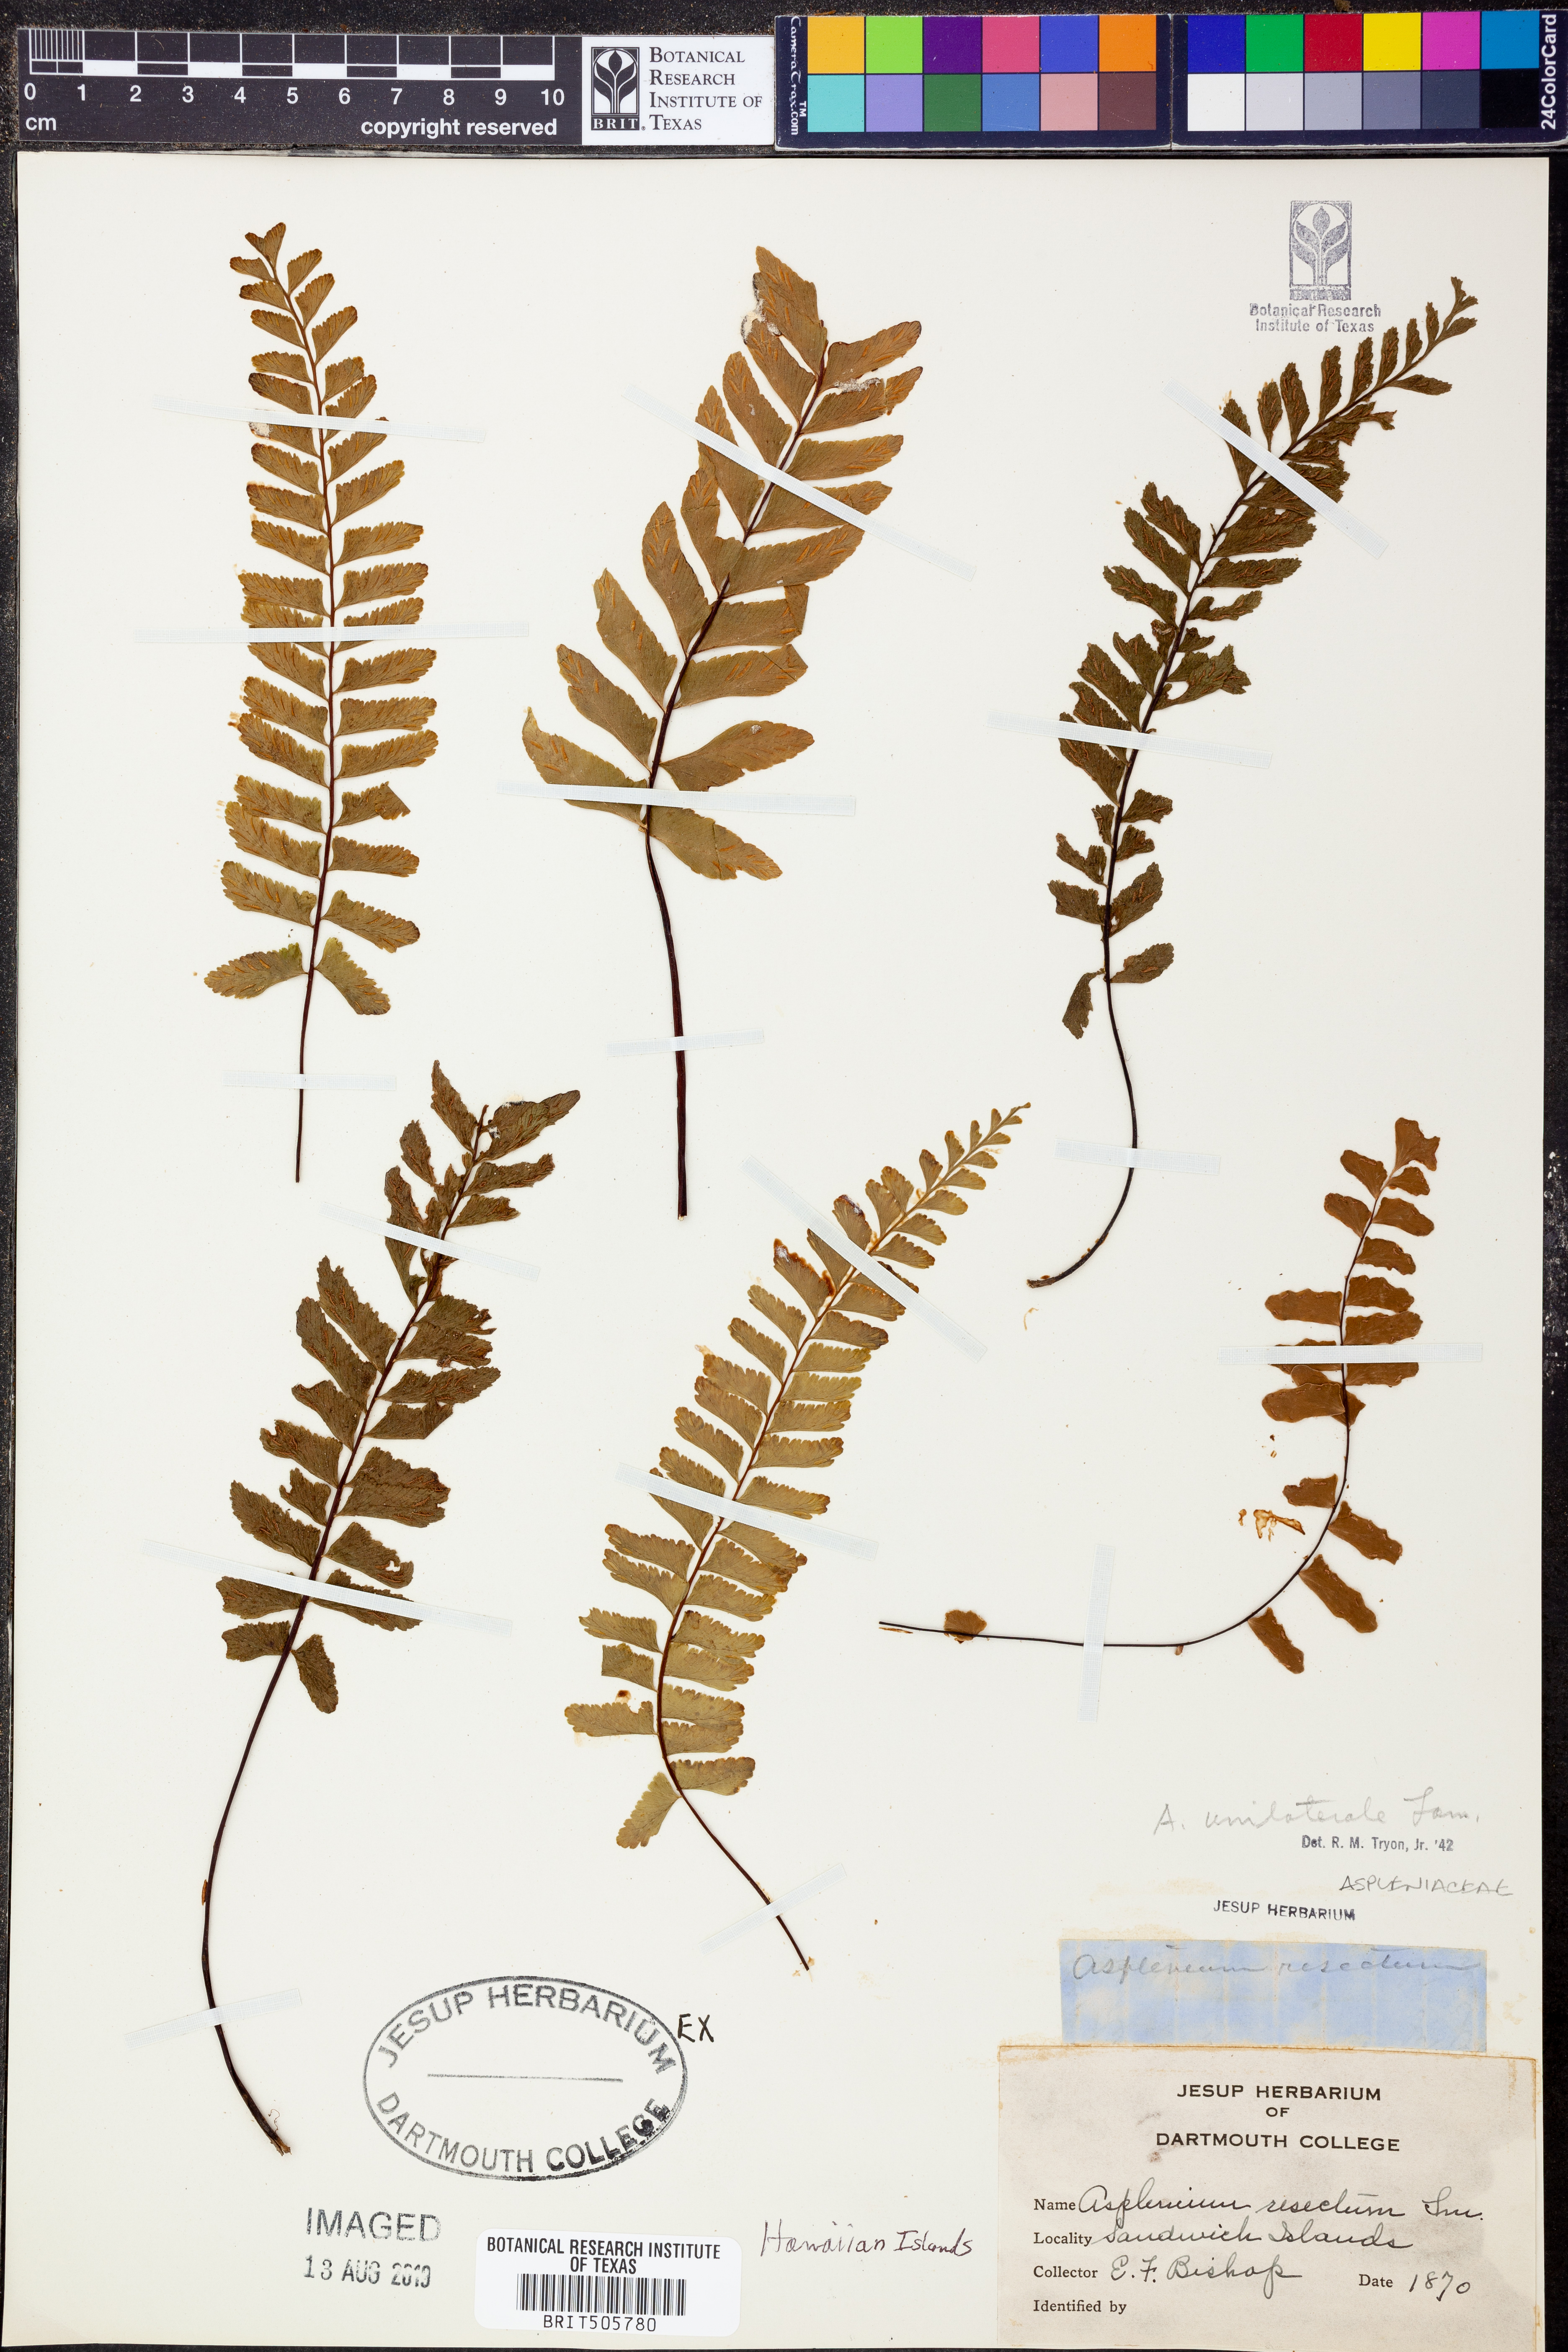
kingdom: Plantae
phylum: Tracheophyta
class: Polypodiopsida
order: Polypodiales
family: Aspleniaceae
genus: Hymenasplenium
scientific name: Hymenasplenium unilaterale
